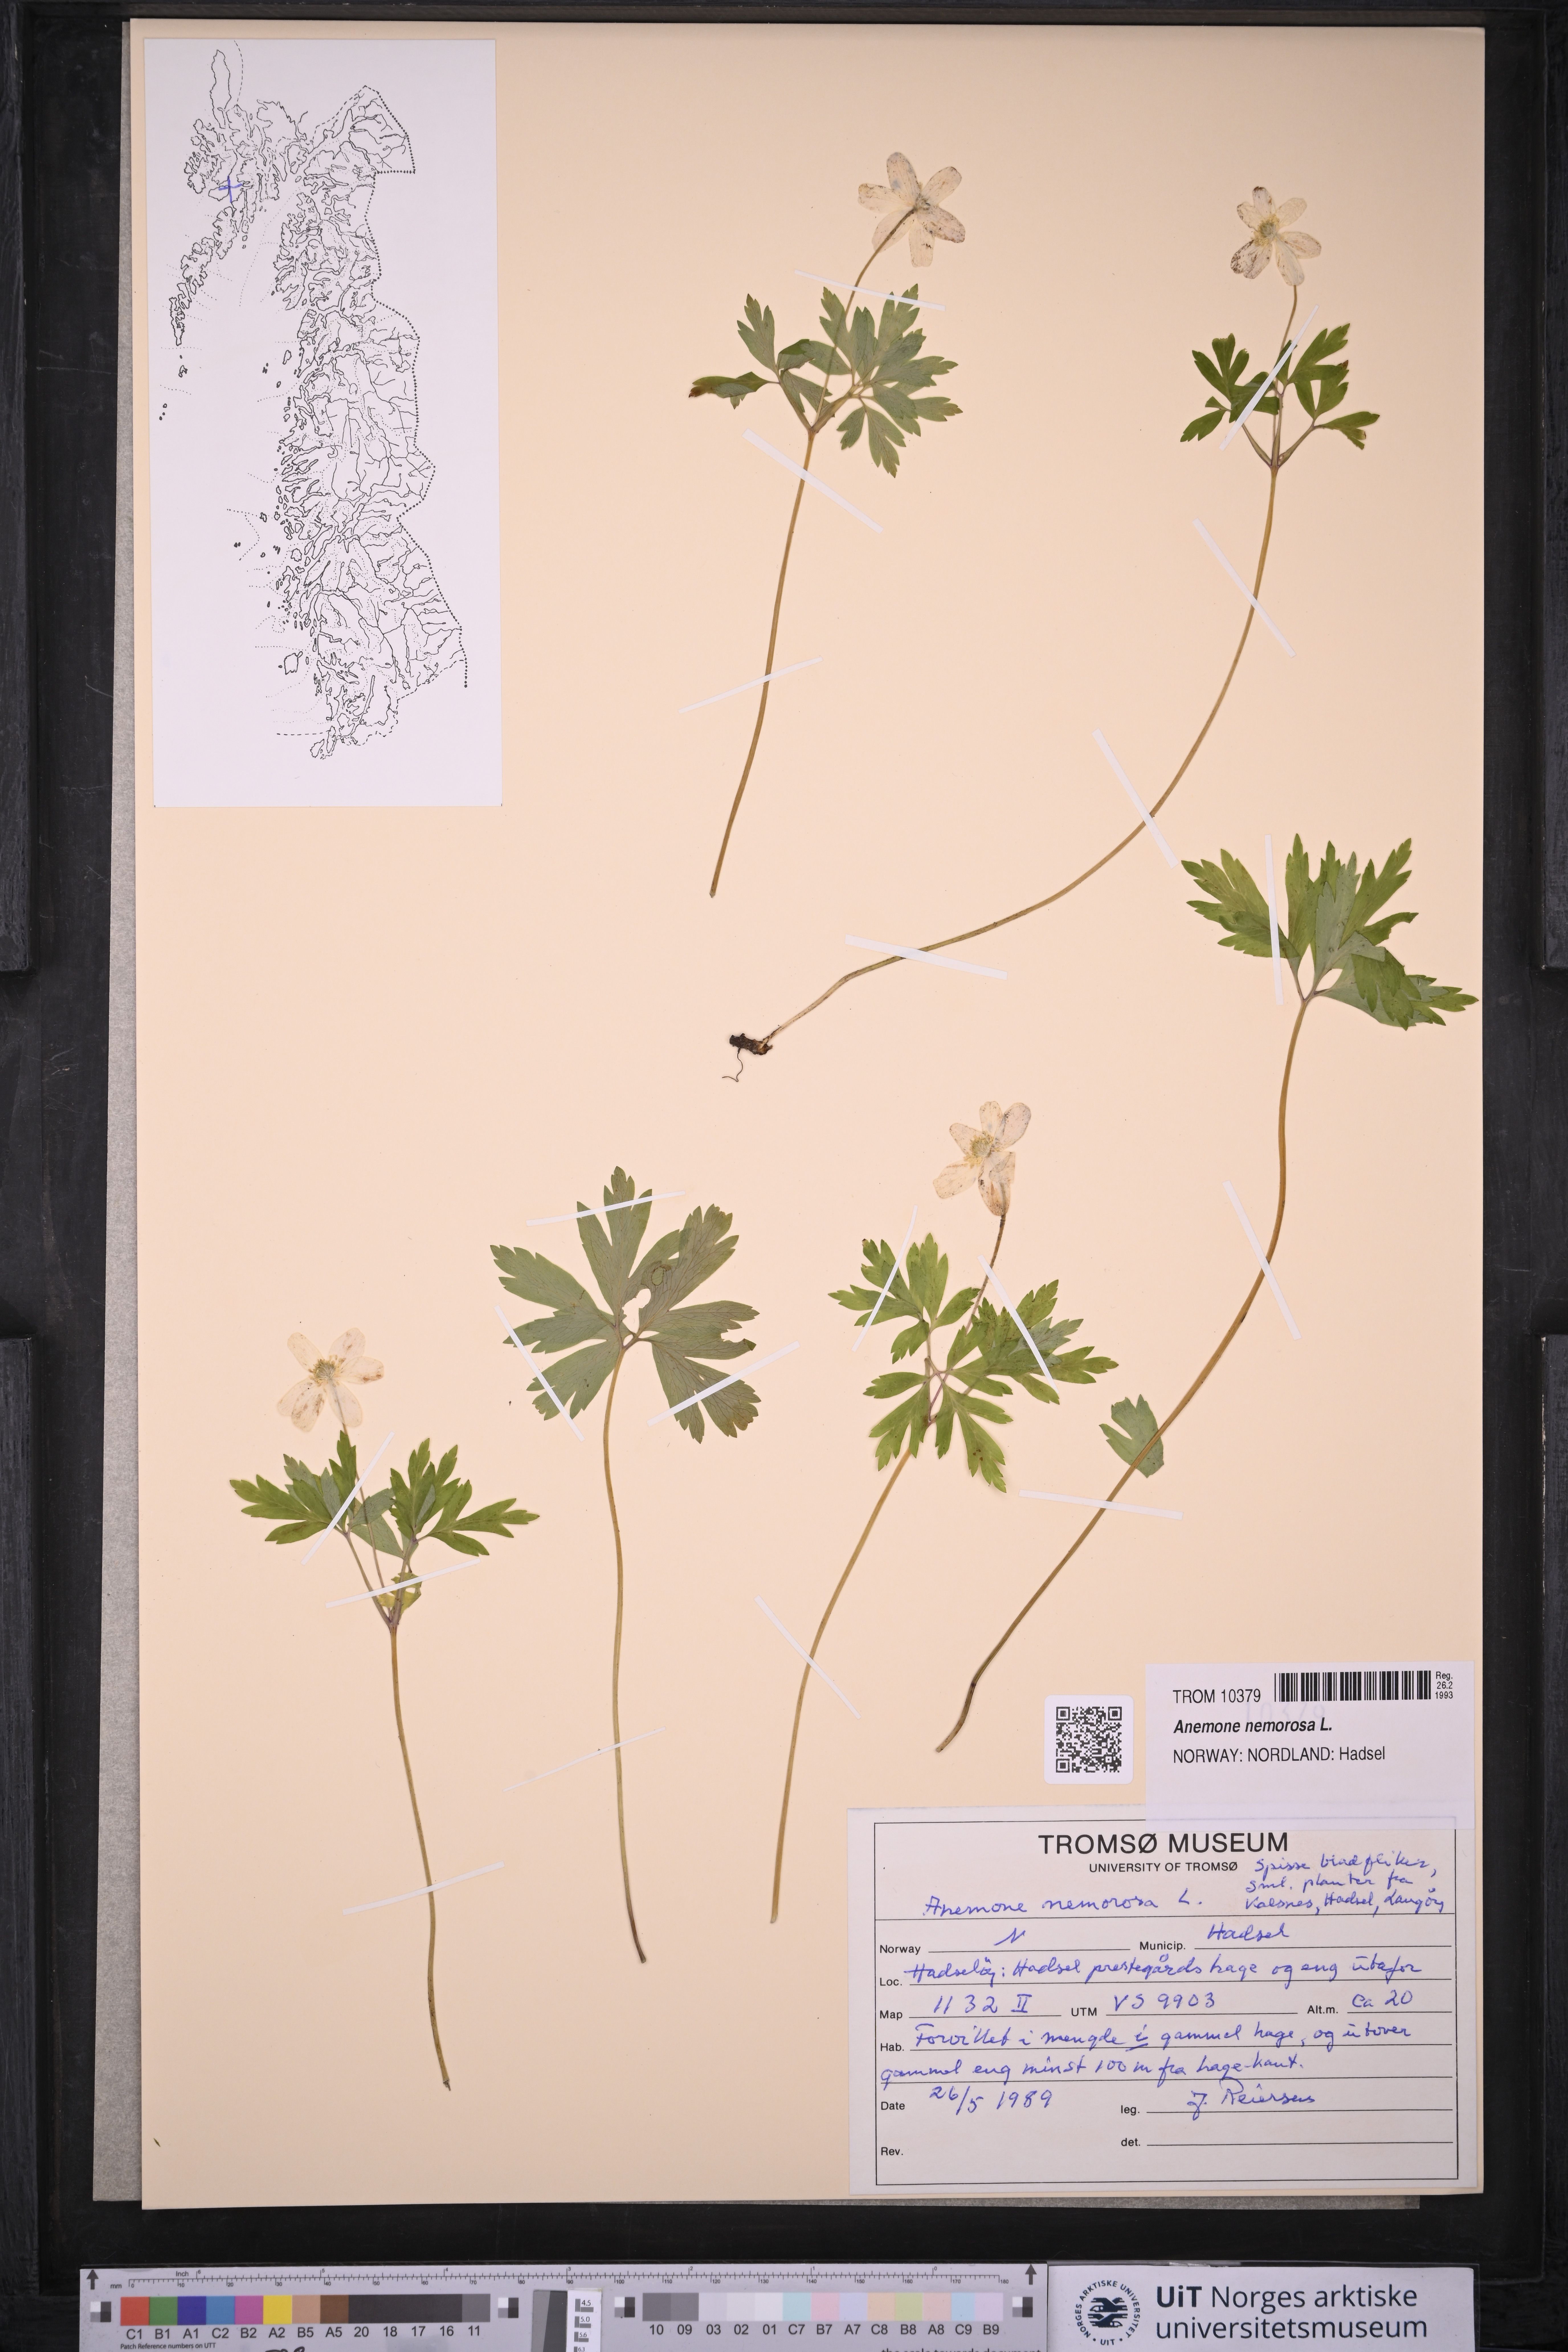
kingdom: Plantae
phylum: Tracheophyta
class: Magnoliopsida
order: Ranunculales
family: Ranunculaceae
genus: Anemone
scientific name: Anemone nemorosa
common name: Wood anemone
